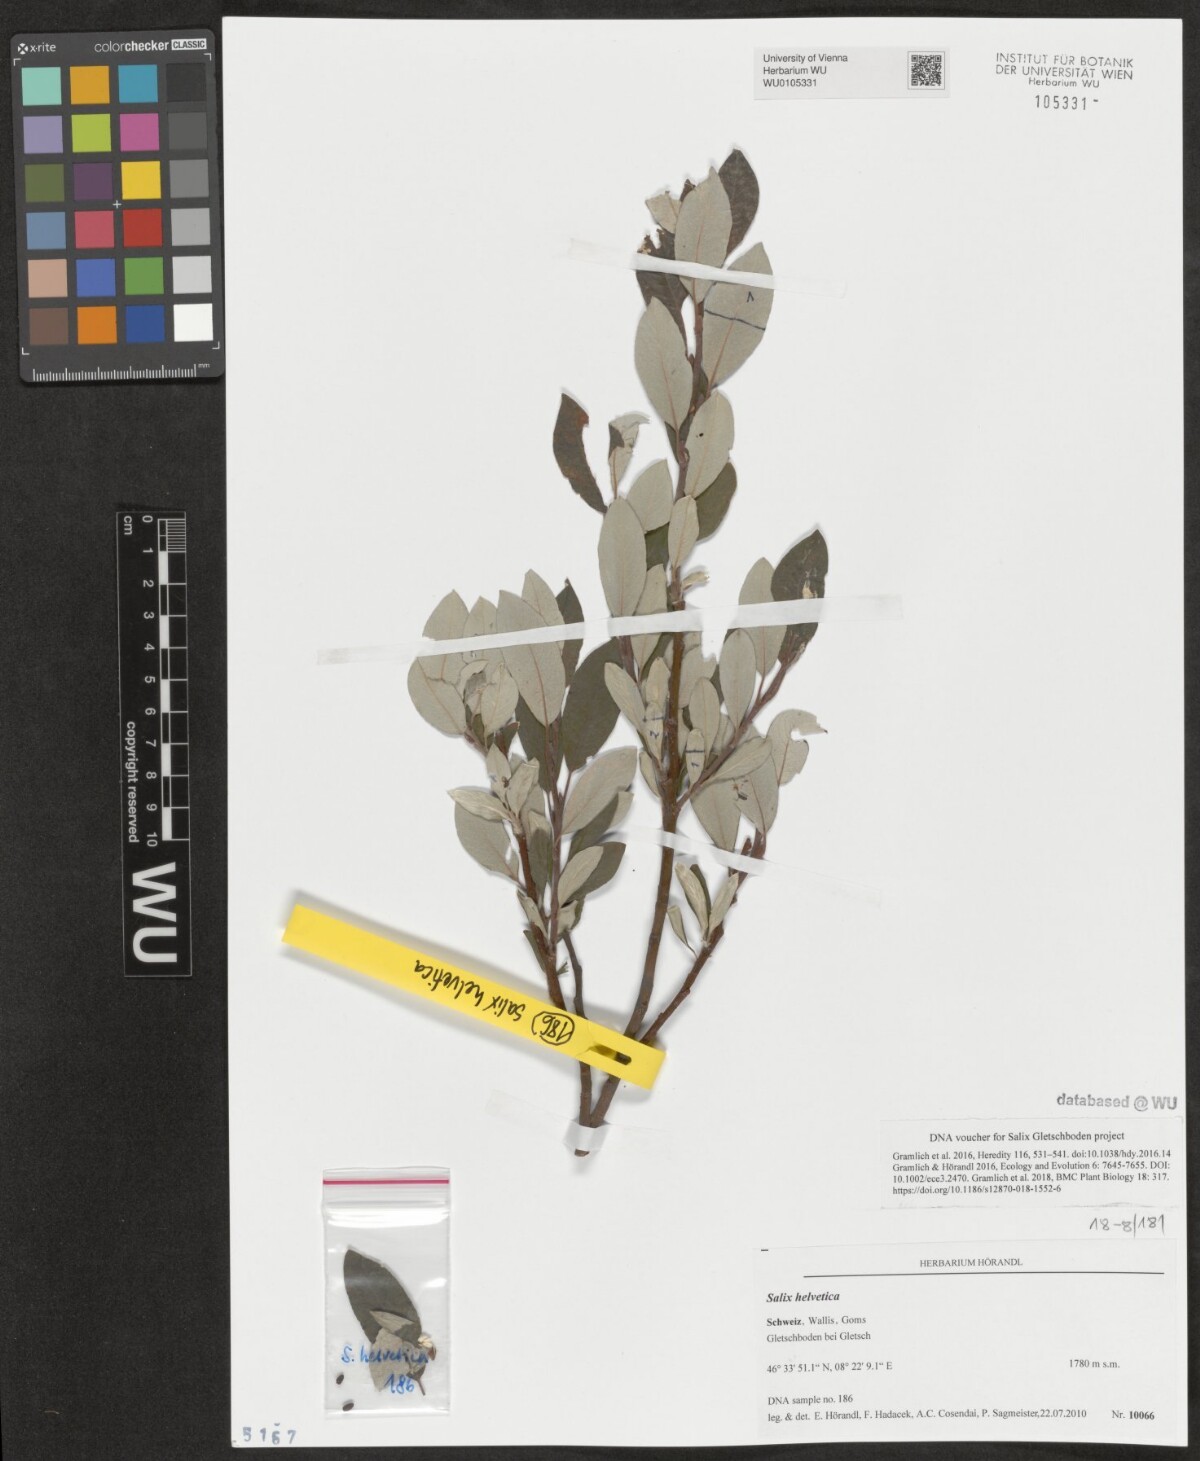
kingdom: Plantae
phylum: Tracheophyta
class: Magnoliopsida
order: Malpighiales
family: Salicaceae
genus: Salix
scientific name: Salix helvetica
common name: Swiss willow
